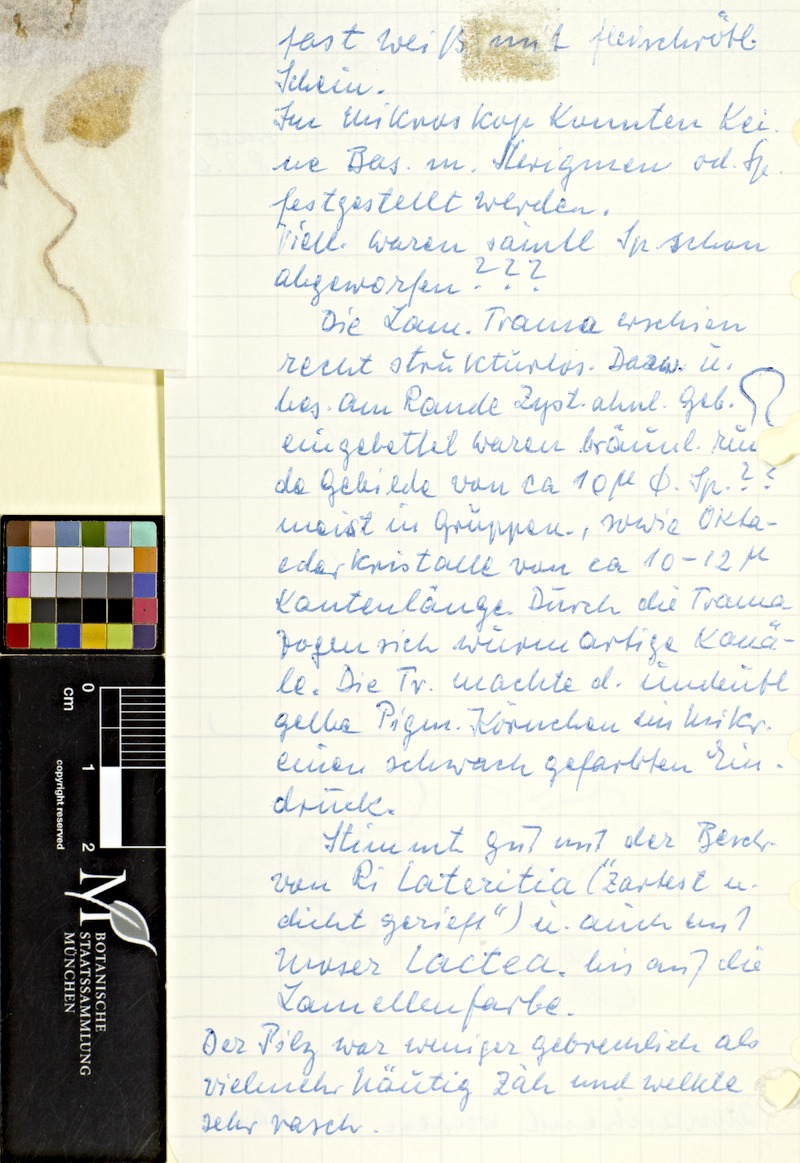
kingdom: Fungi
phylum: Basidiomycota
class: Agaricomycetes
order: Agaricales
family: Bolbitiaceae
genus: Conocybe
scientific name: Conocybe apala
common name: Milky conecap
